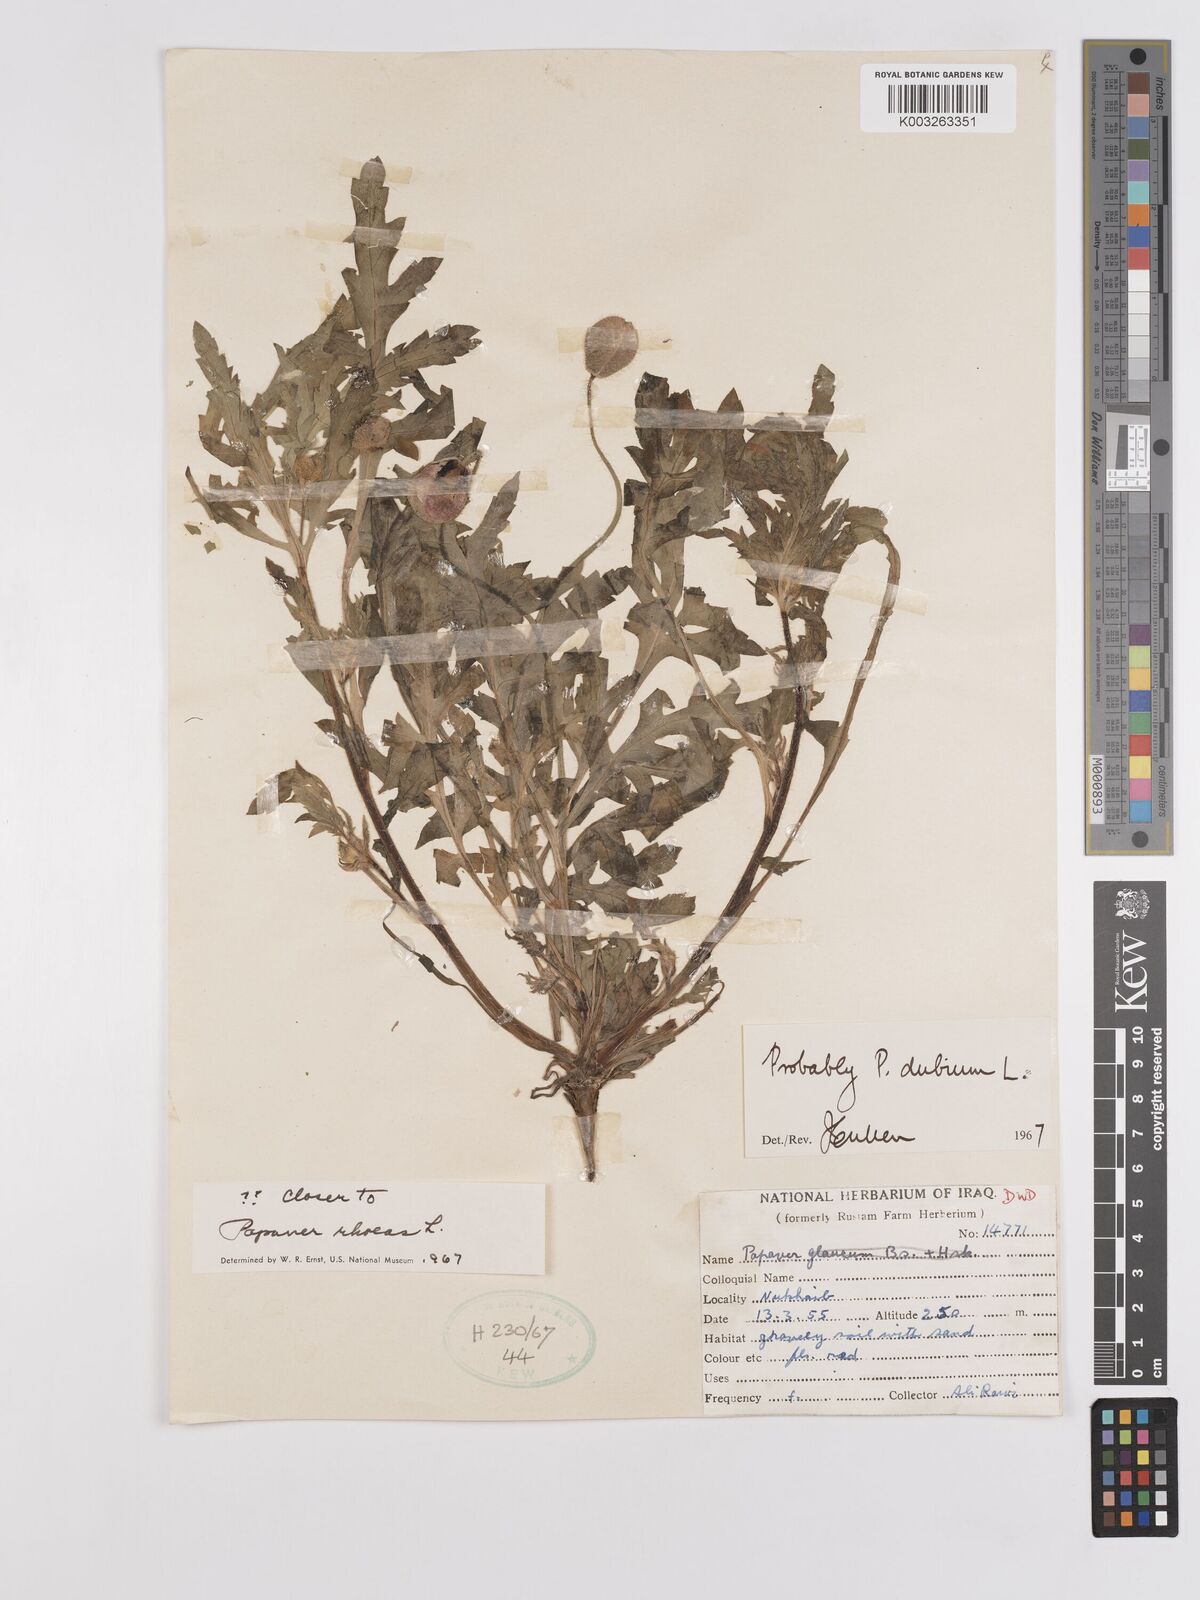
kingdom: Plantae
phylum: Tracheophyta
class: Magnoliopsida
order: Ranunculales
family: Papaveraceae
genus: Papaver
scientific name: Papaver rhoeas
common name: Corn poppy
